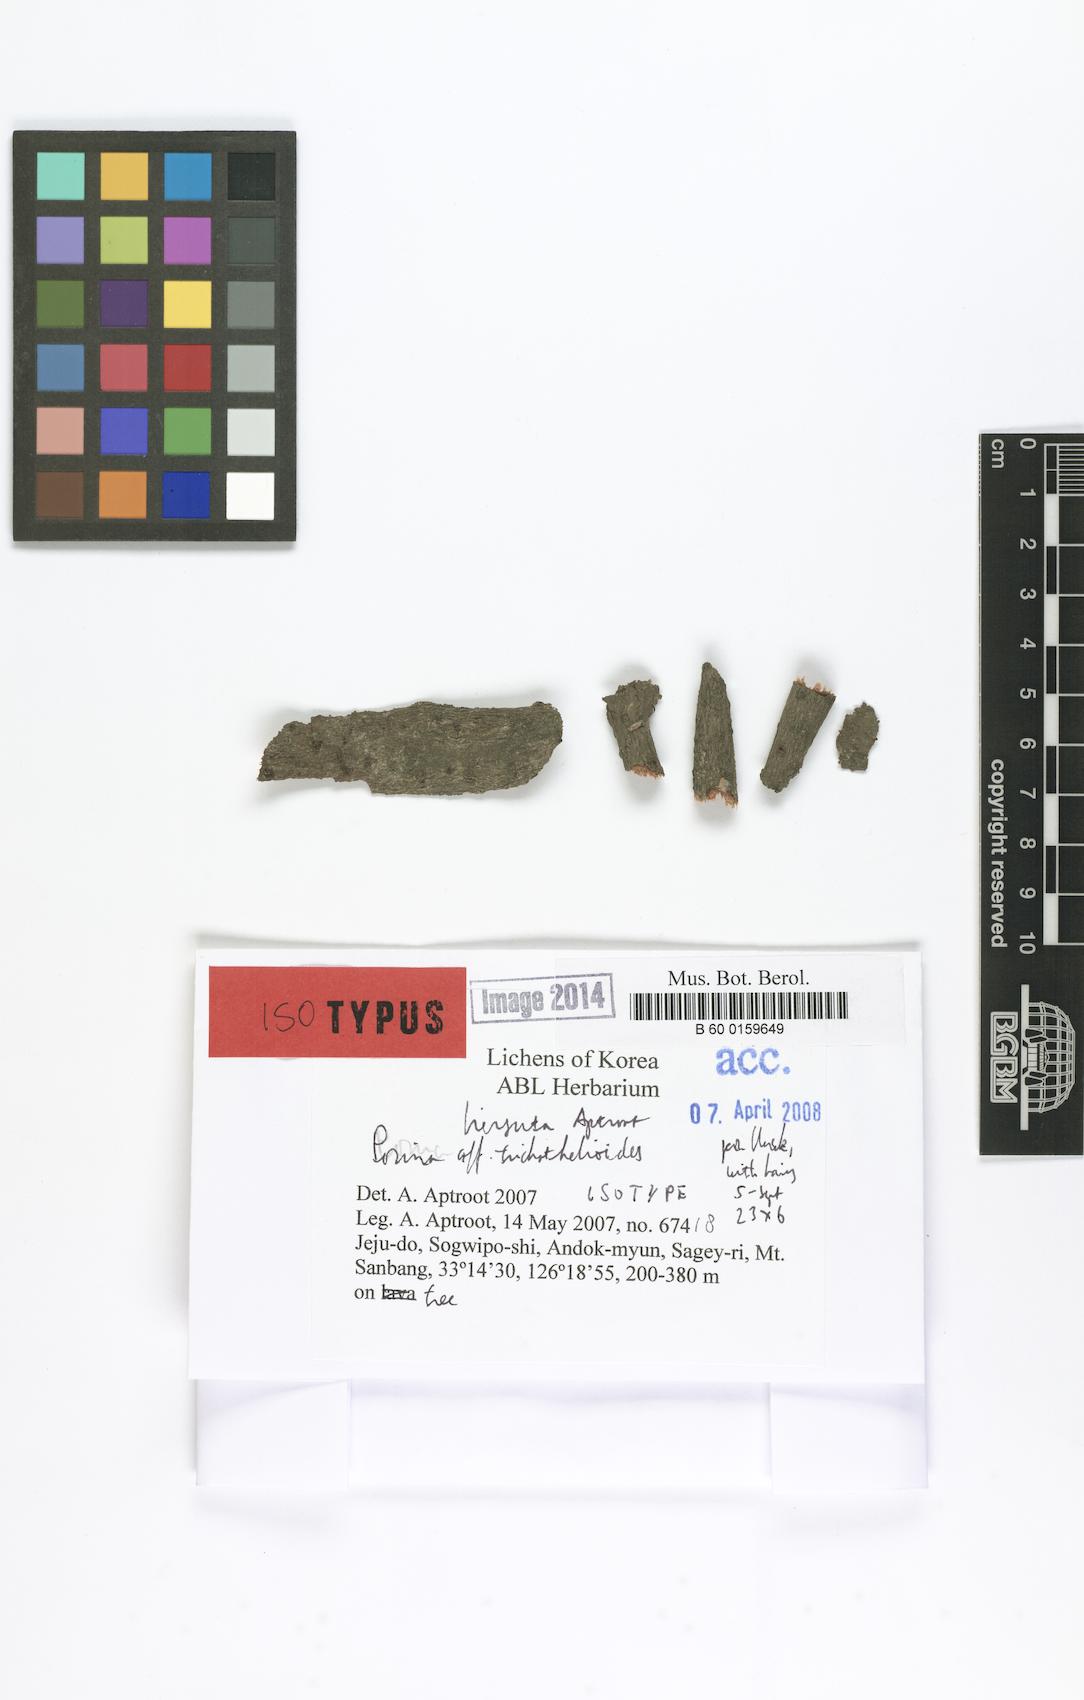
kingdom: Fungi
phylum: Ascomycota
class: Lecanoromycetes
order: Pertusariales
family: Pertusariaceae
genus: Porina
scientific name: Porina hirsuta
